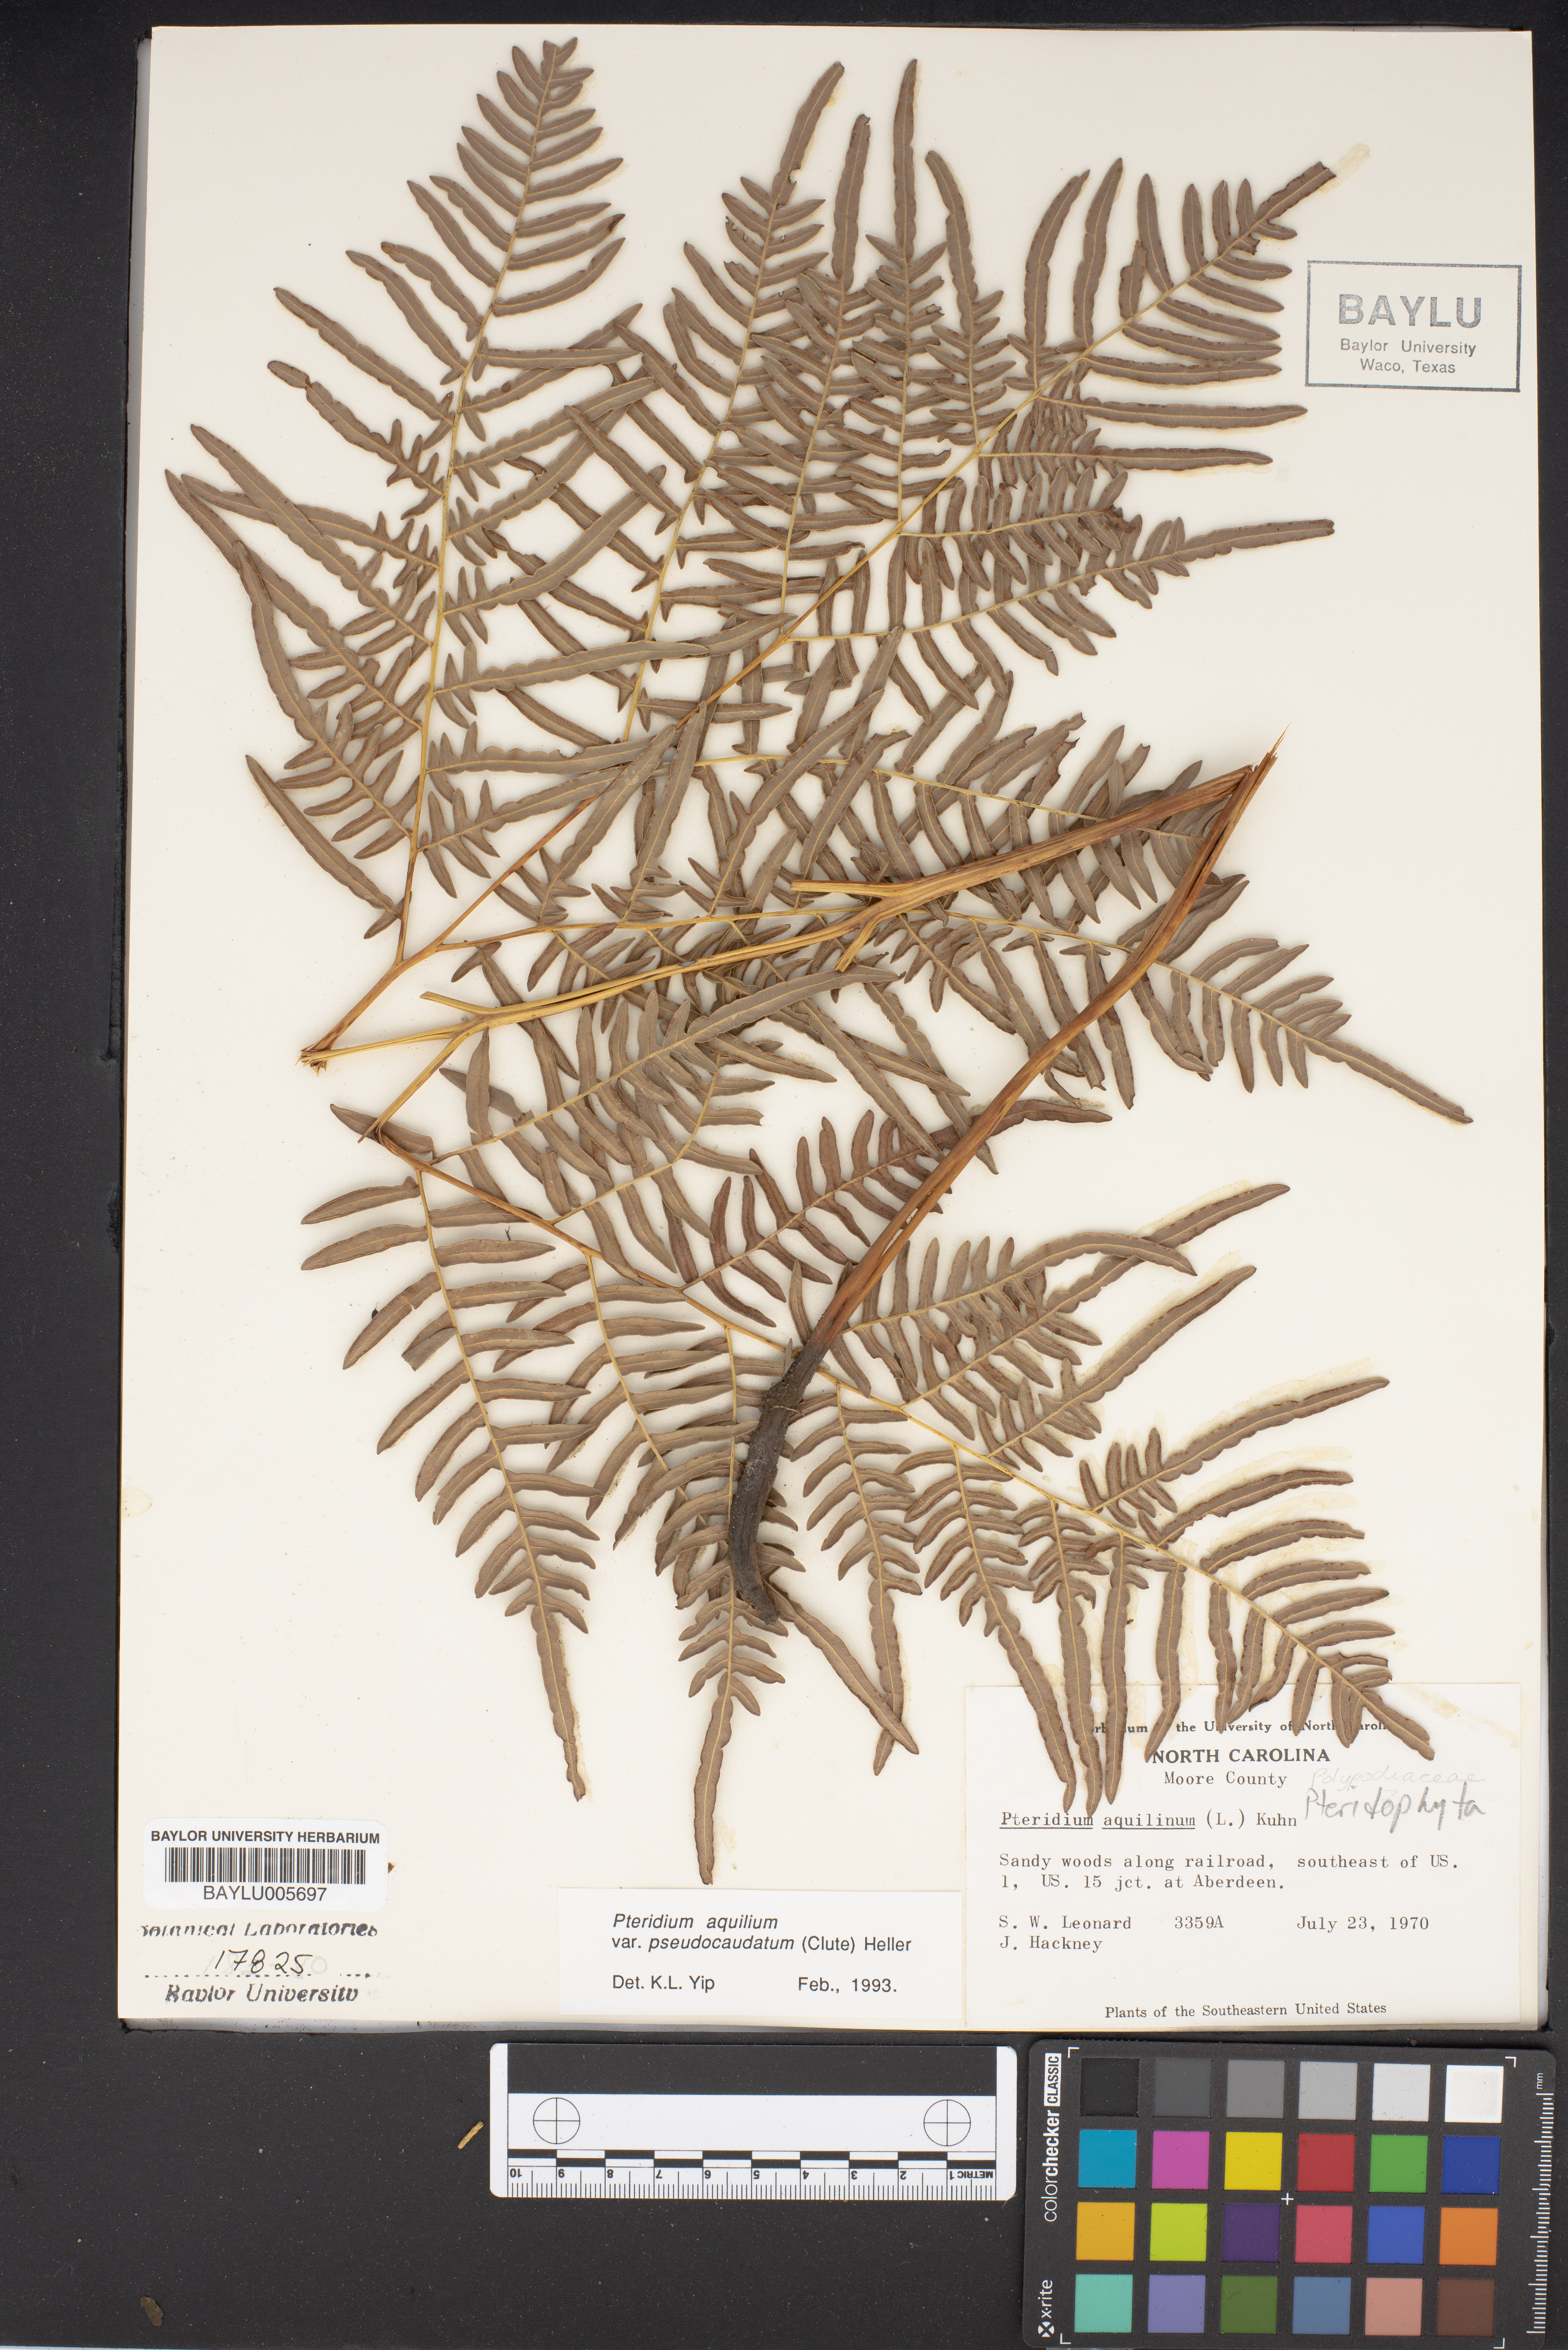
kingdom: Plantae
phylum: Tracheophyta
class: Polypodiopsida
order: Polypodiales
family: Dennstaedtiaceae
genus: Pteridium
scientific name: Pteridium aquilinum
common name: Bracken
